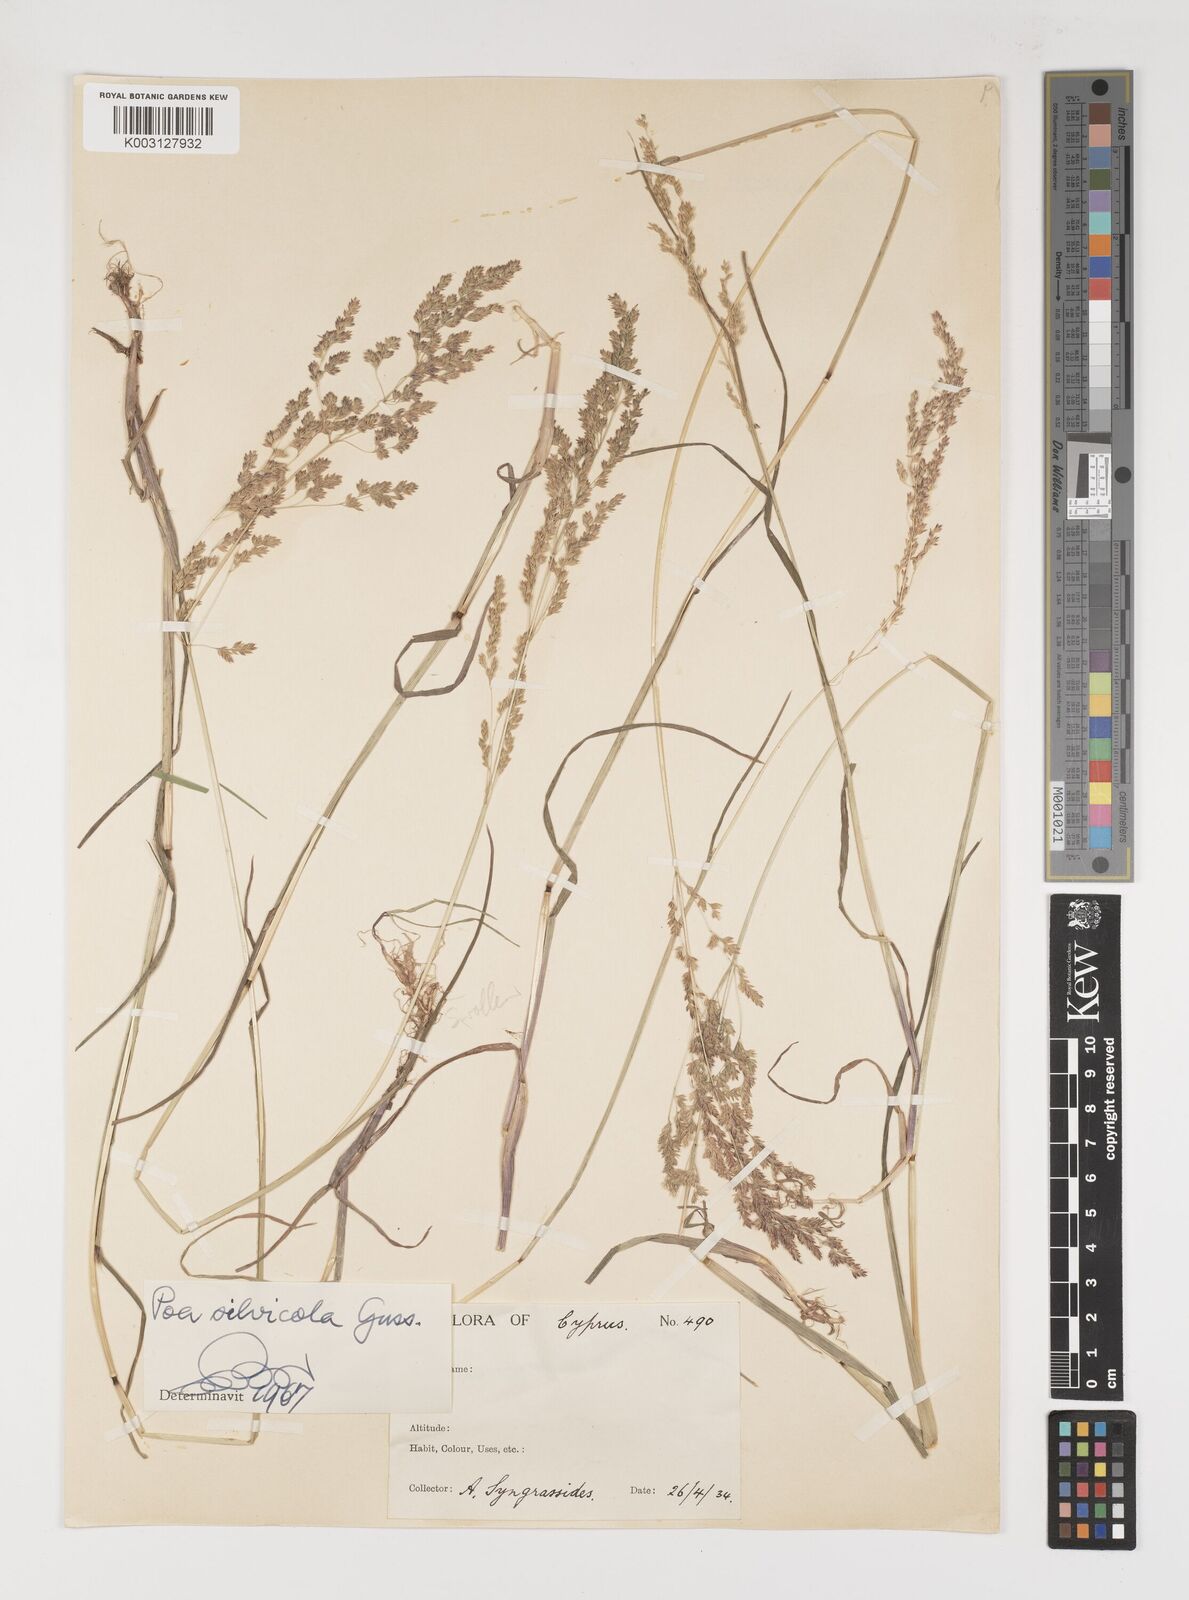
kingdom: Plantae
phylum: Tracheophyta
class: Liliopsida
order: Poales
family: Poaceae
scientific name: Poaceae
